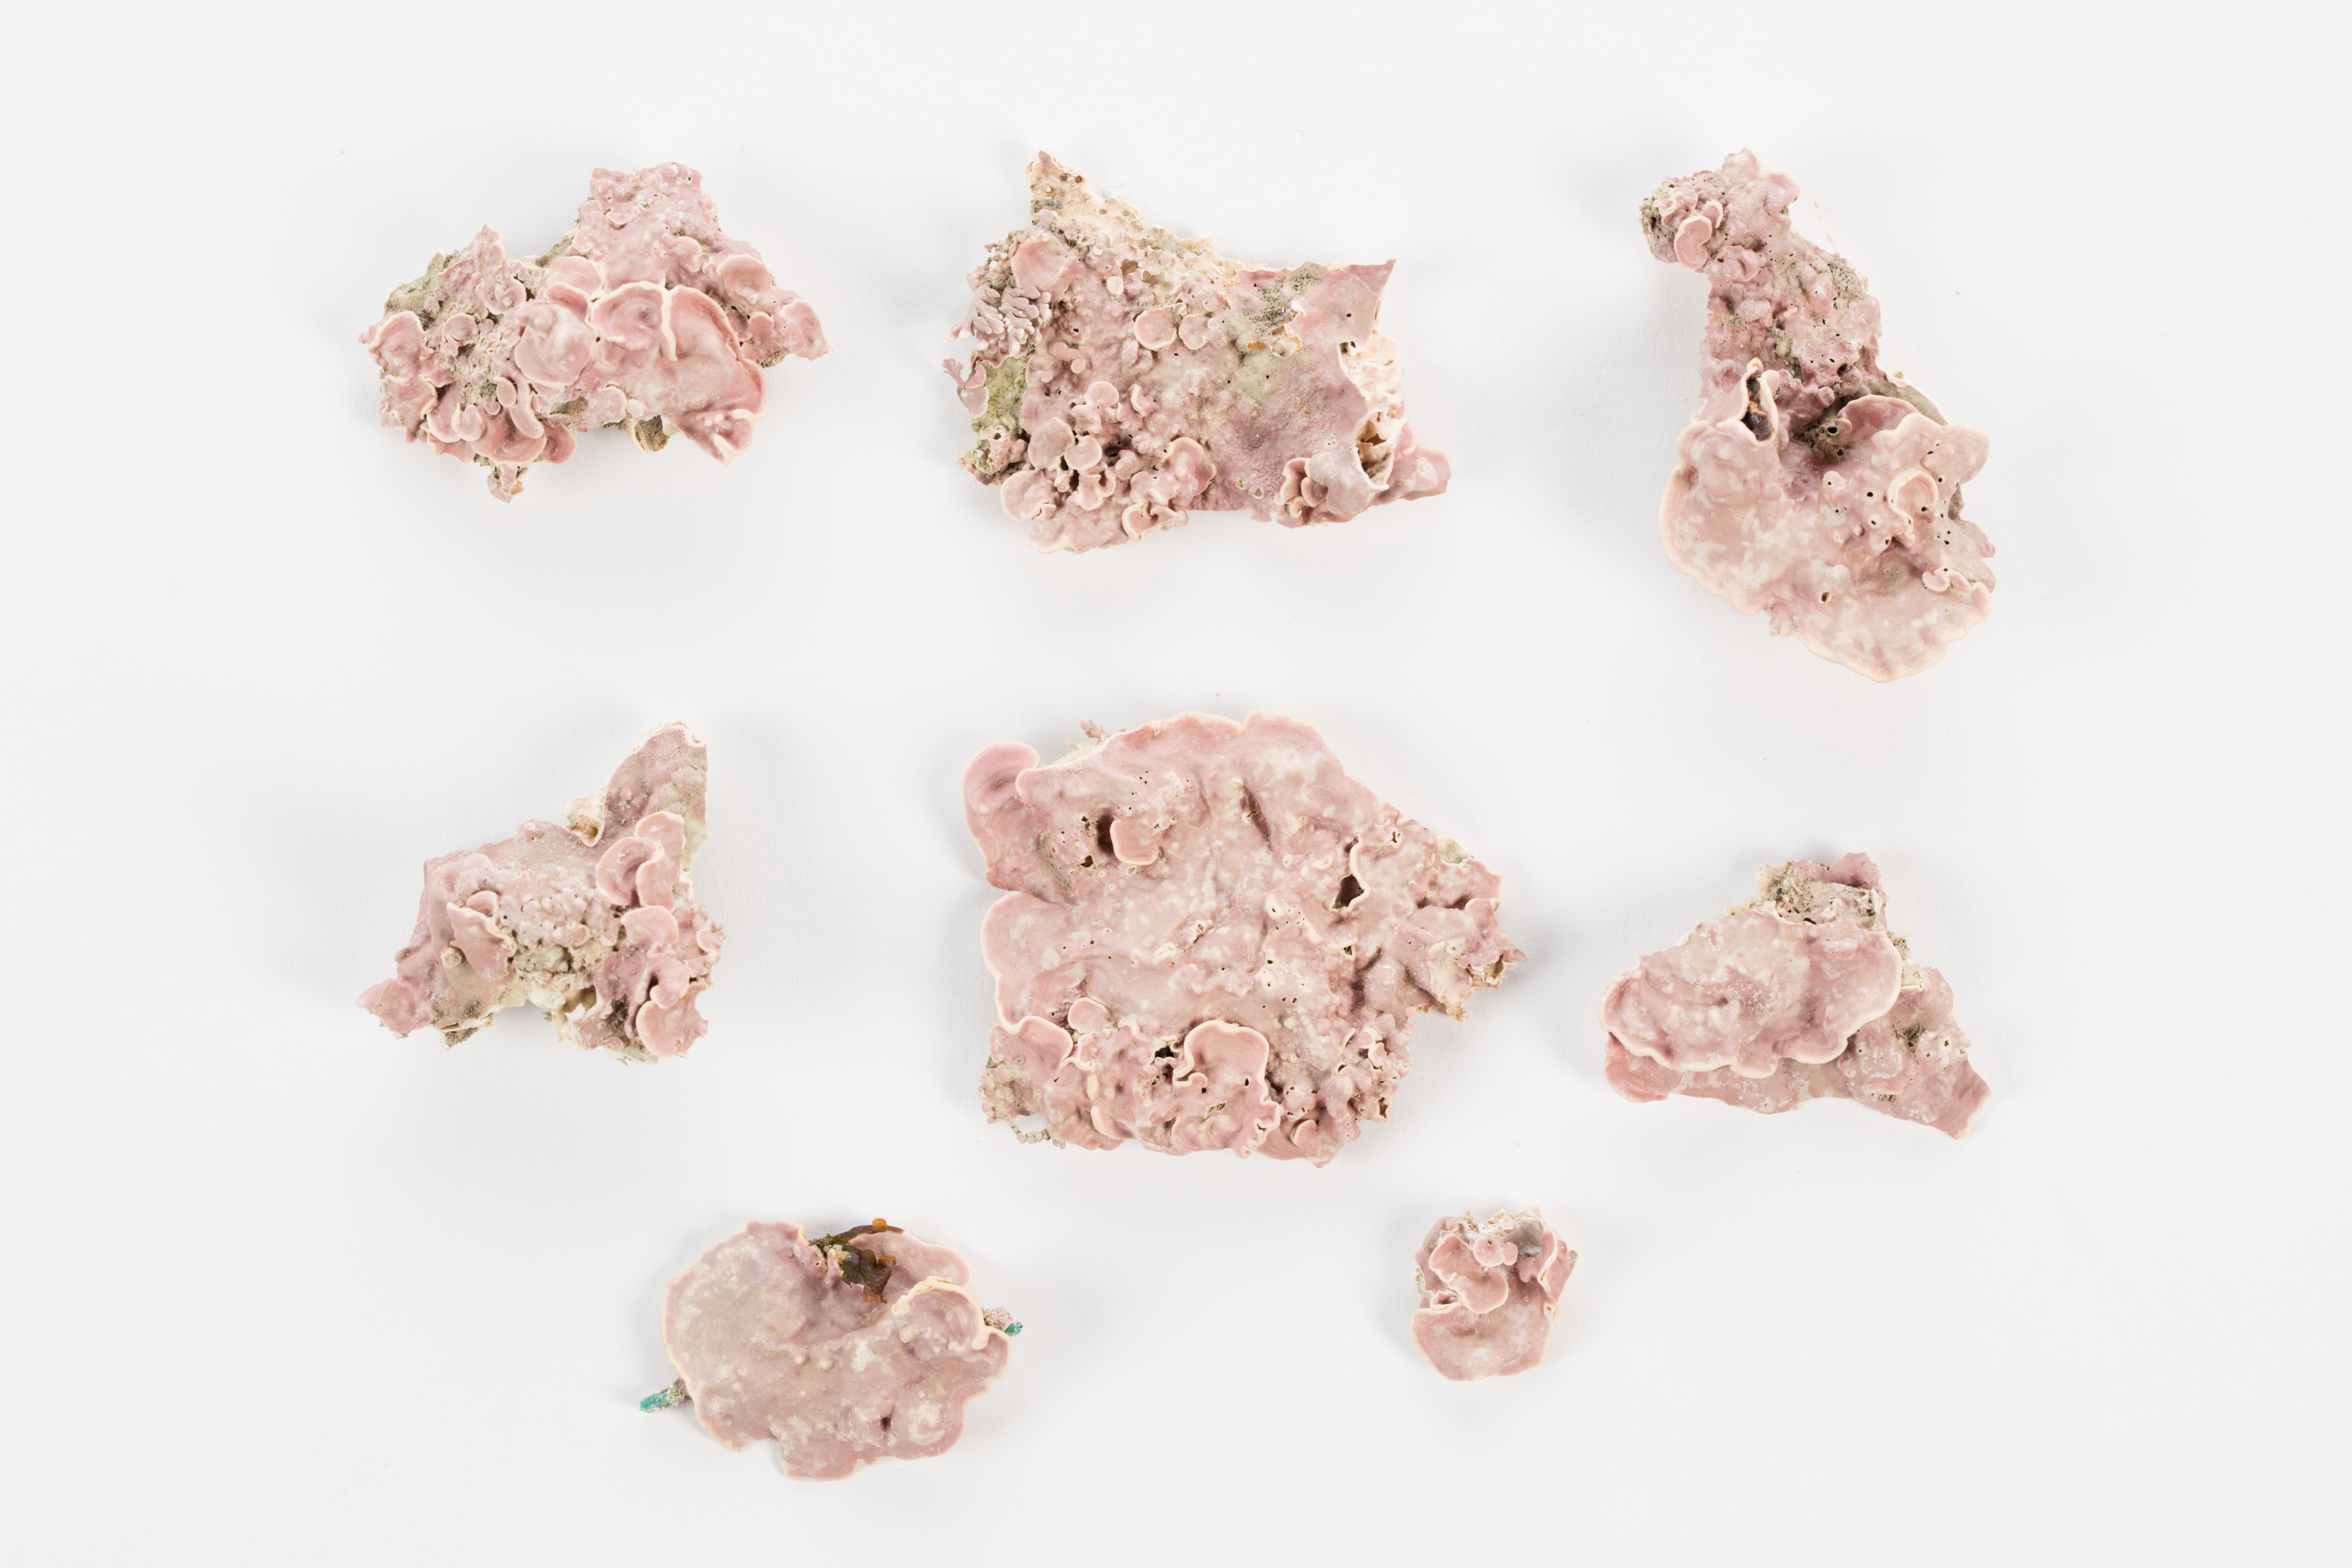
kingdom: Plantae
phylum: Rhodophyta
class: Florideophyceae
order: Corallinales
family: Corallinaceae
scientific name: Corallinaceae
